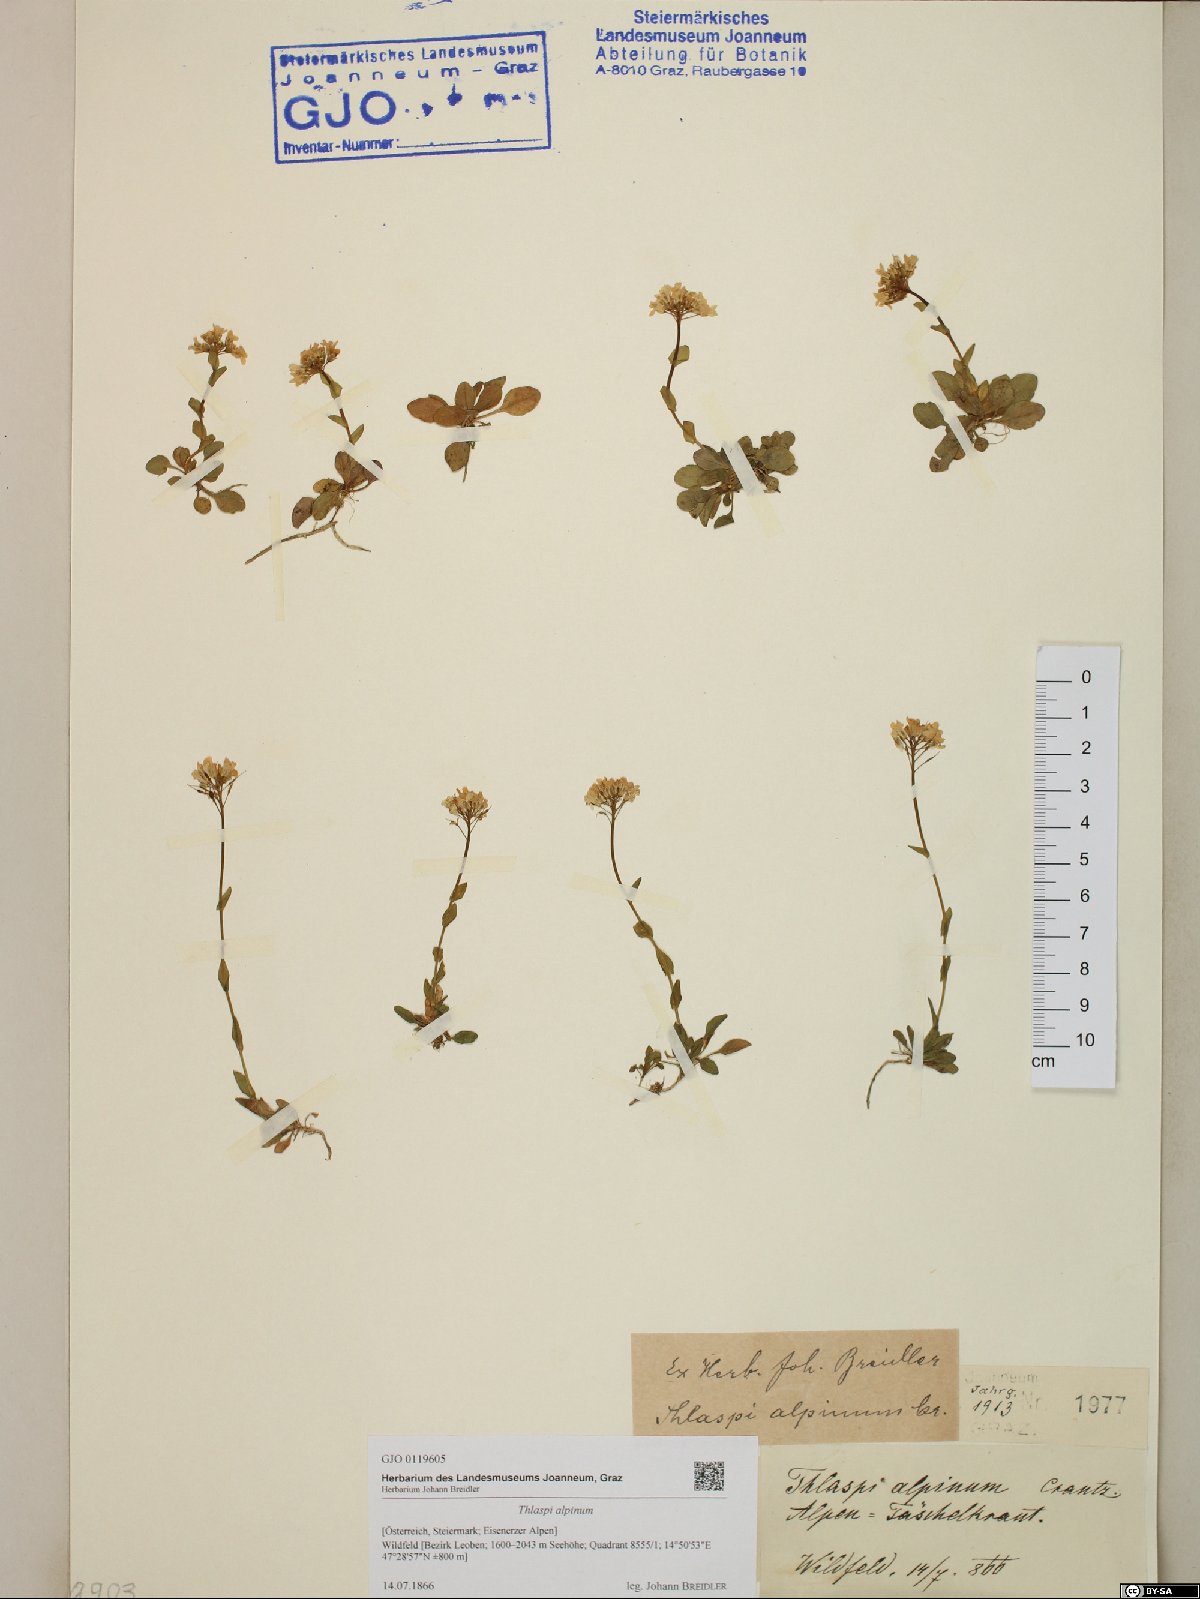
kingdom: Plantae
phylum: Tracheophyta
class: Magnoliopsida
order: Brassicales
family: Brassicaceae
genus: Noccaea
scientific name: Noccaea alpestris
